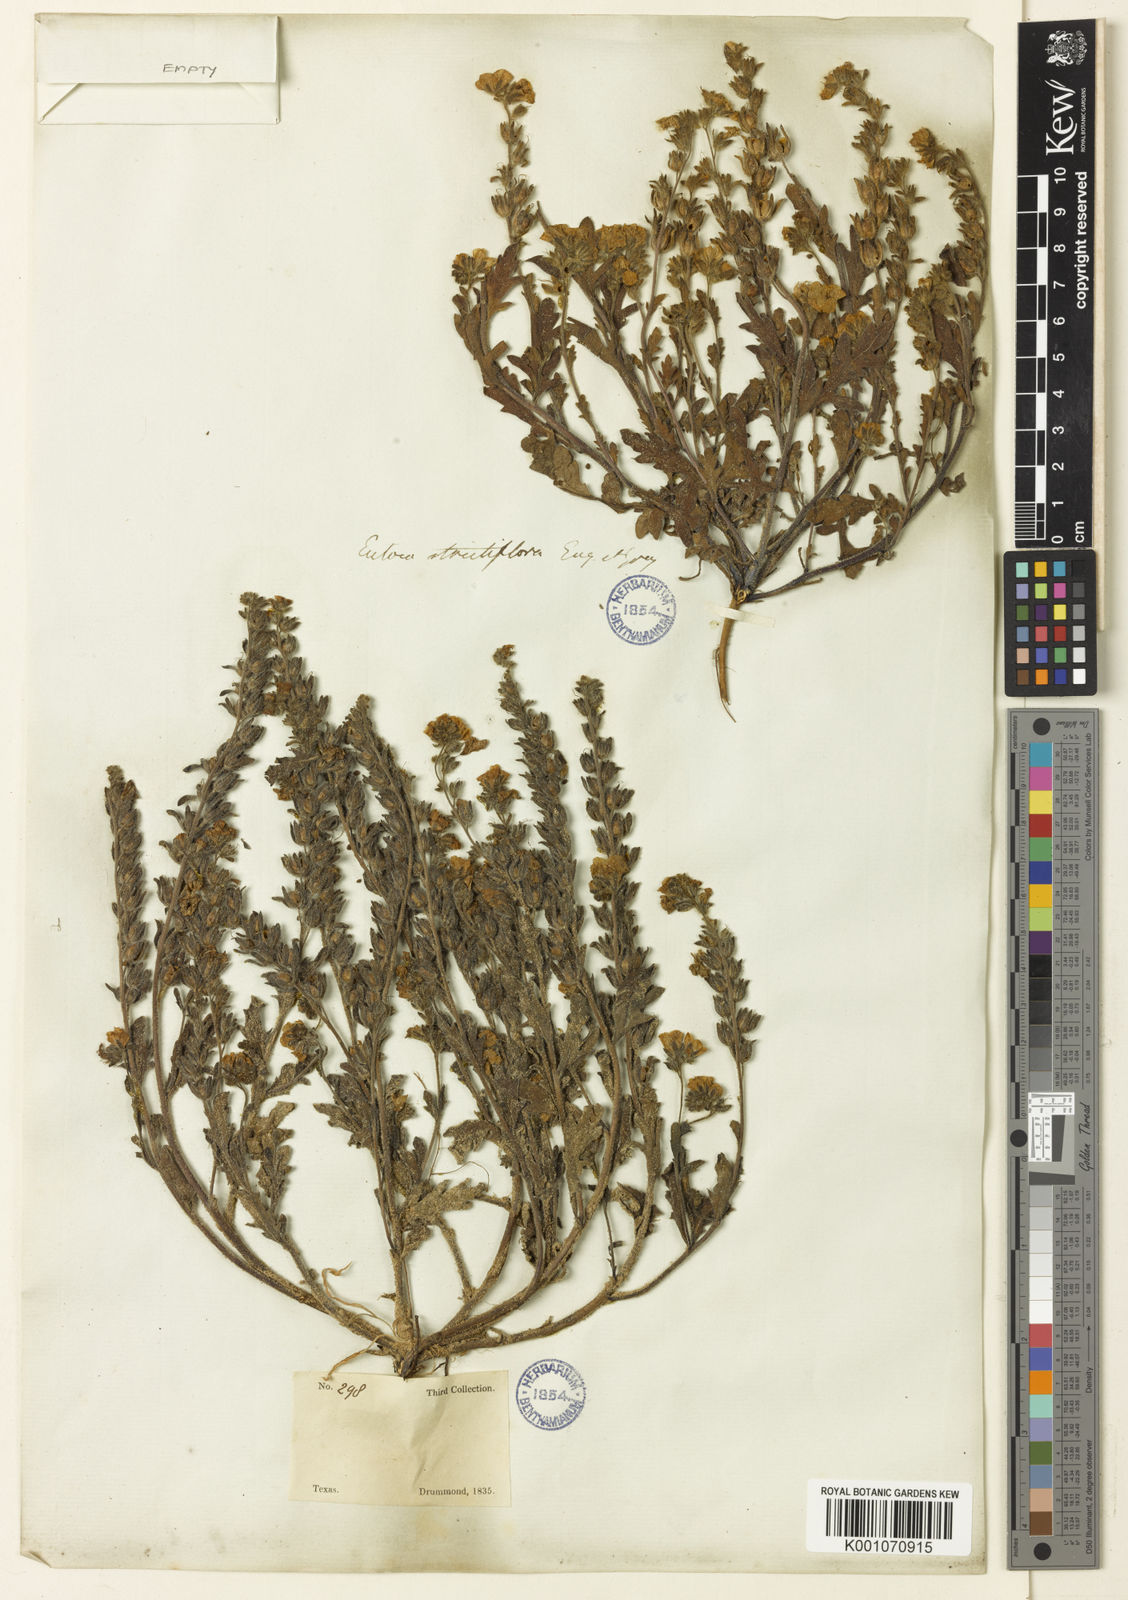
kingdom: Plantae
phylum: Tracheophyta
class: Magnoliopsida
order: Boraginales
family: Hydrophyllaceae
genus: Phacelia
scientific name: Phacelia strictiflora
